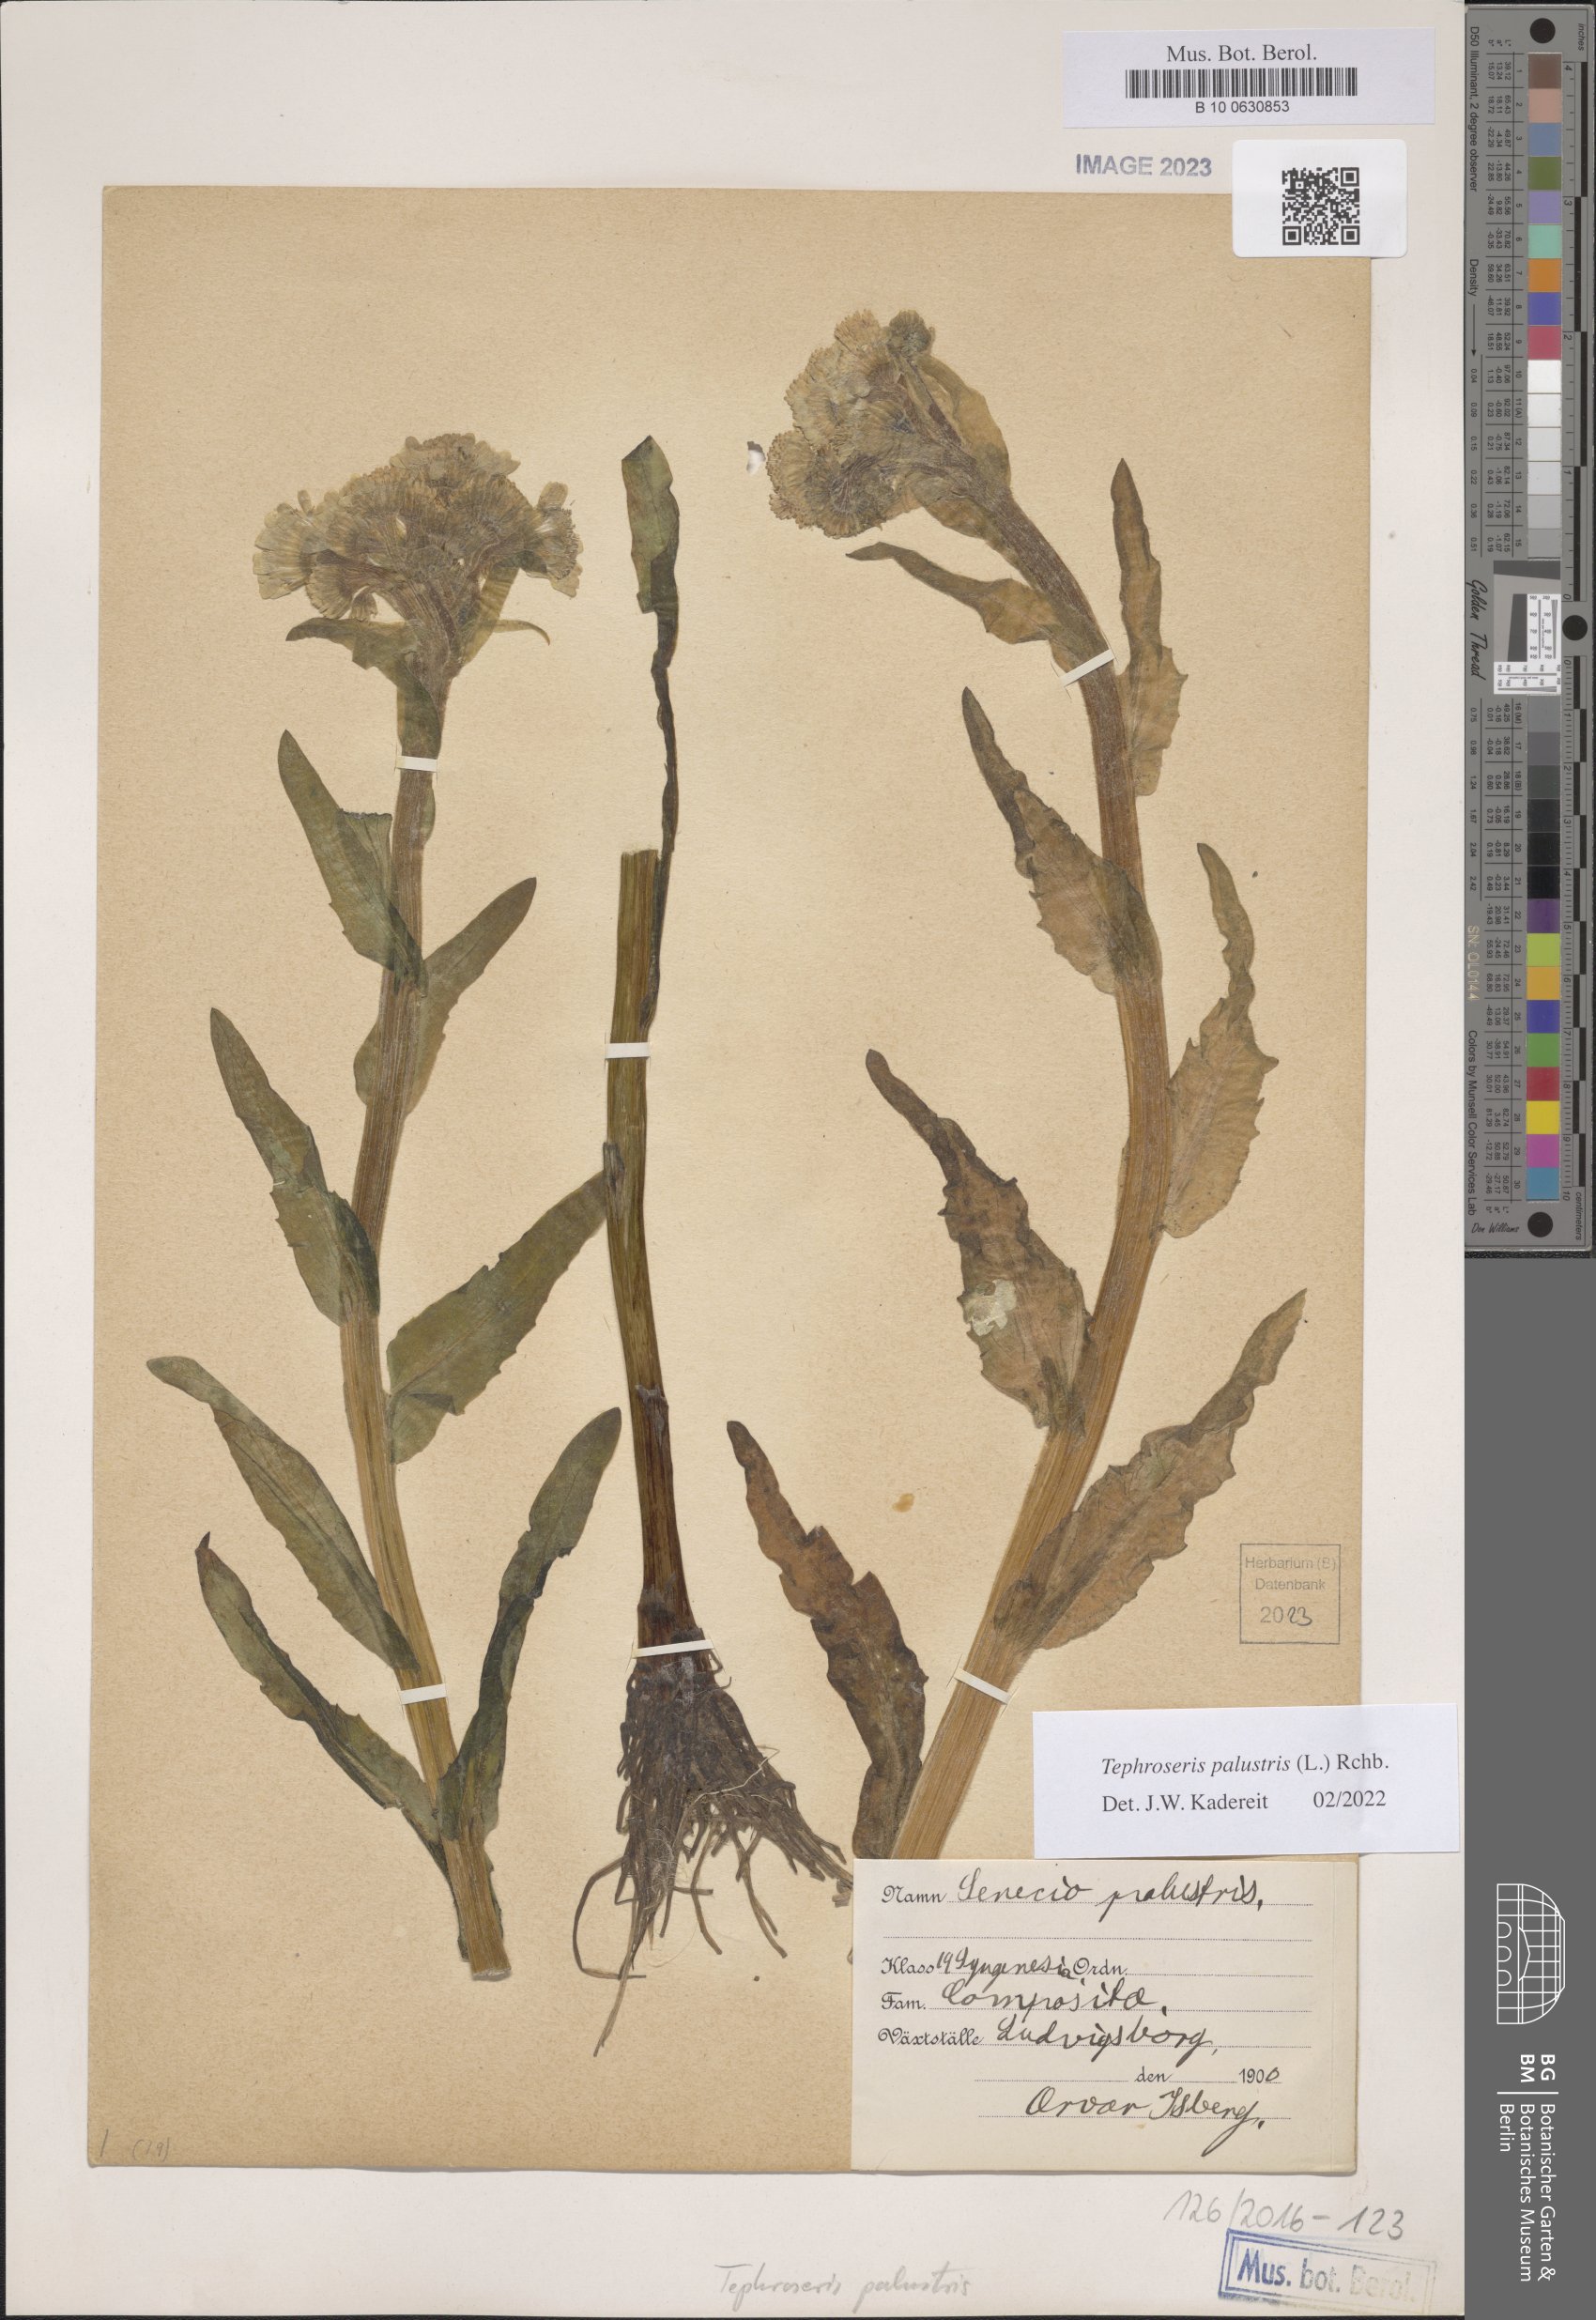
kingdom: Plantae
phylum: Tracheophyta
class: Magnoliopsida
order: Asterales
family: Asteraceae
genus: Tephroseris
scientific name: Tephroseris palustris
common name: Marsh fleawort
